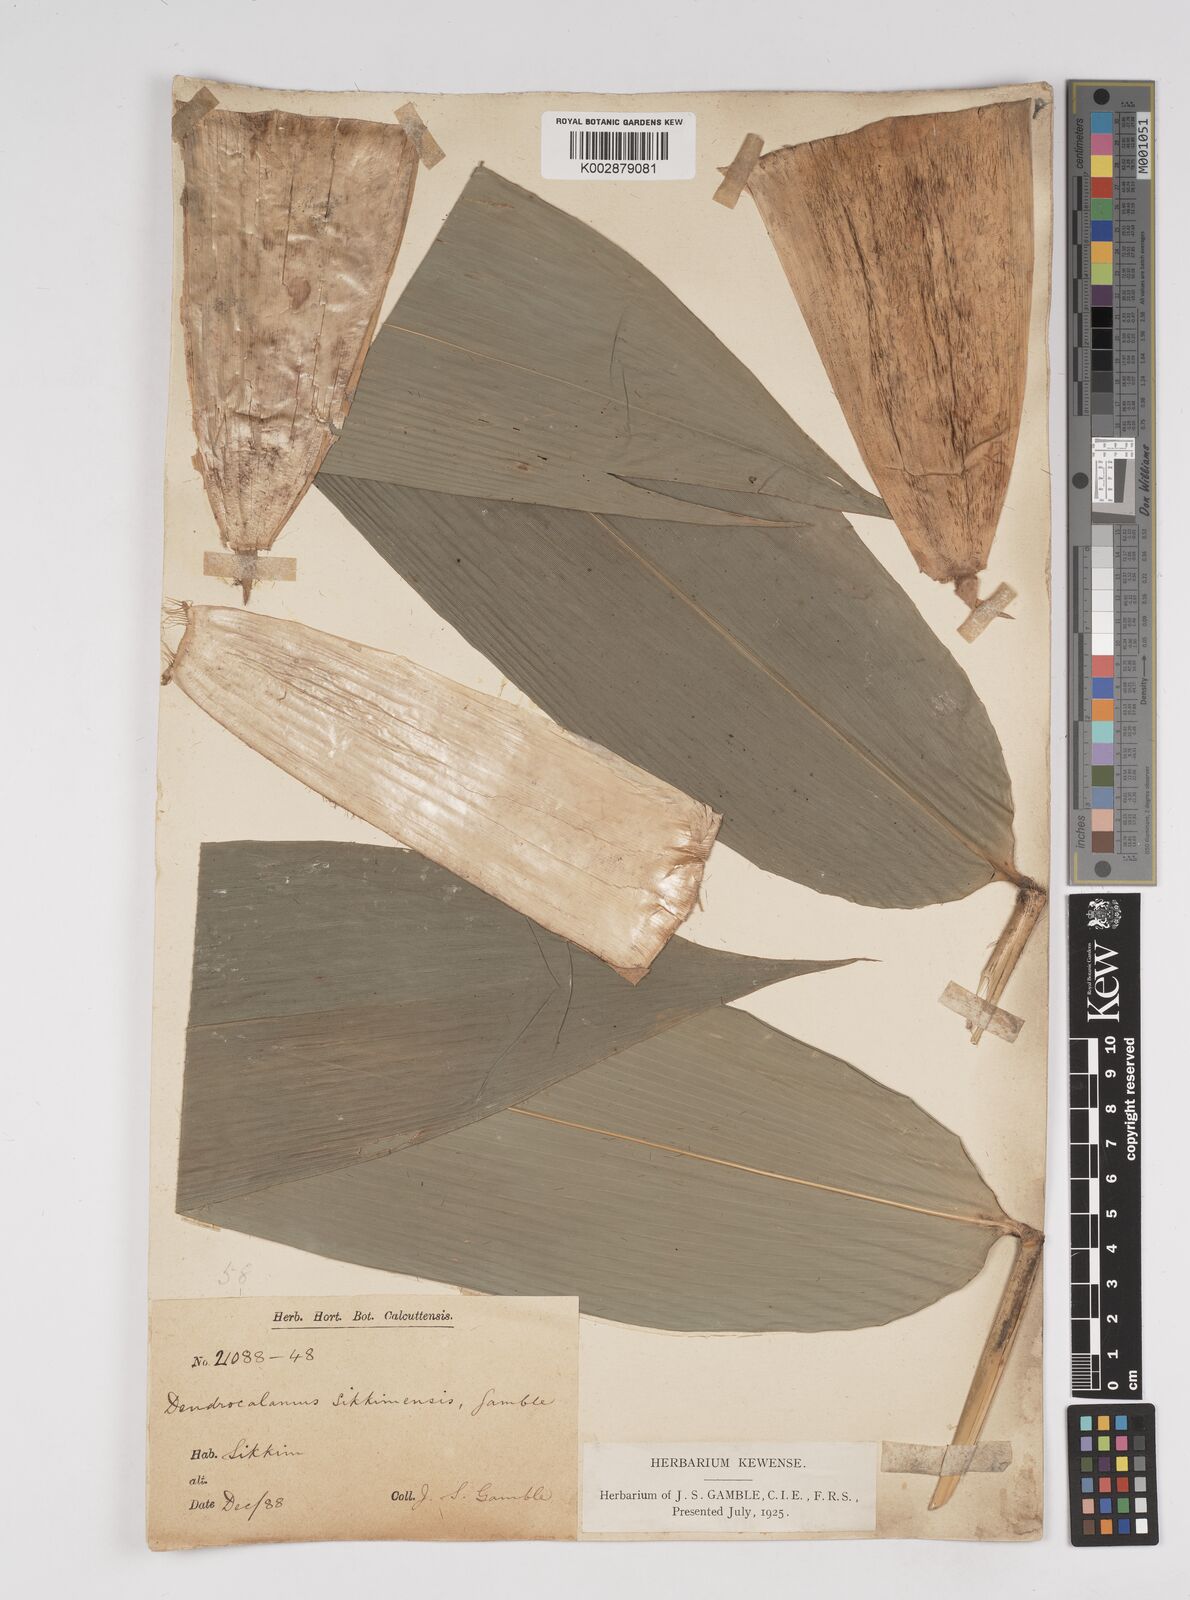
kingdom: Plantae
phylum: Tracheophyta
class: Liliopsida
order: Poales
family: Poaceae
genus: Dendrocalamus
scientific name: Dendrocalamus sikkimensis
